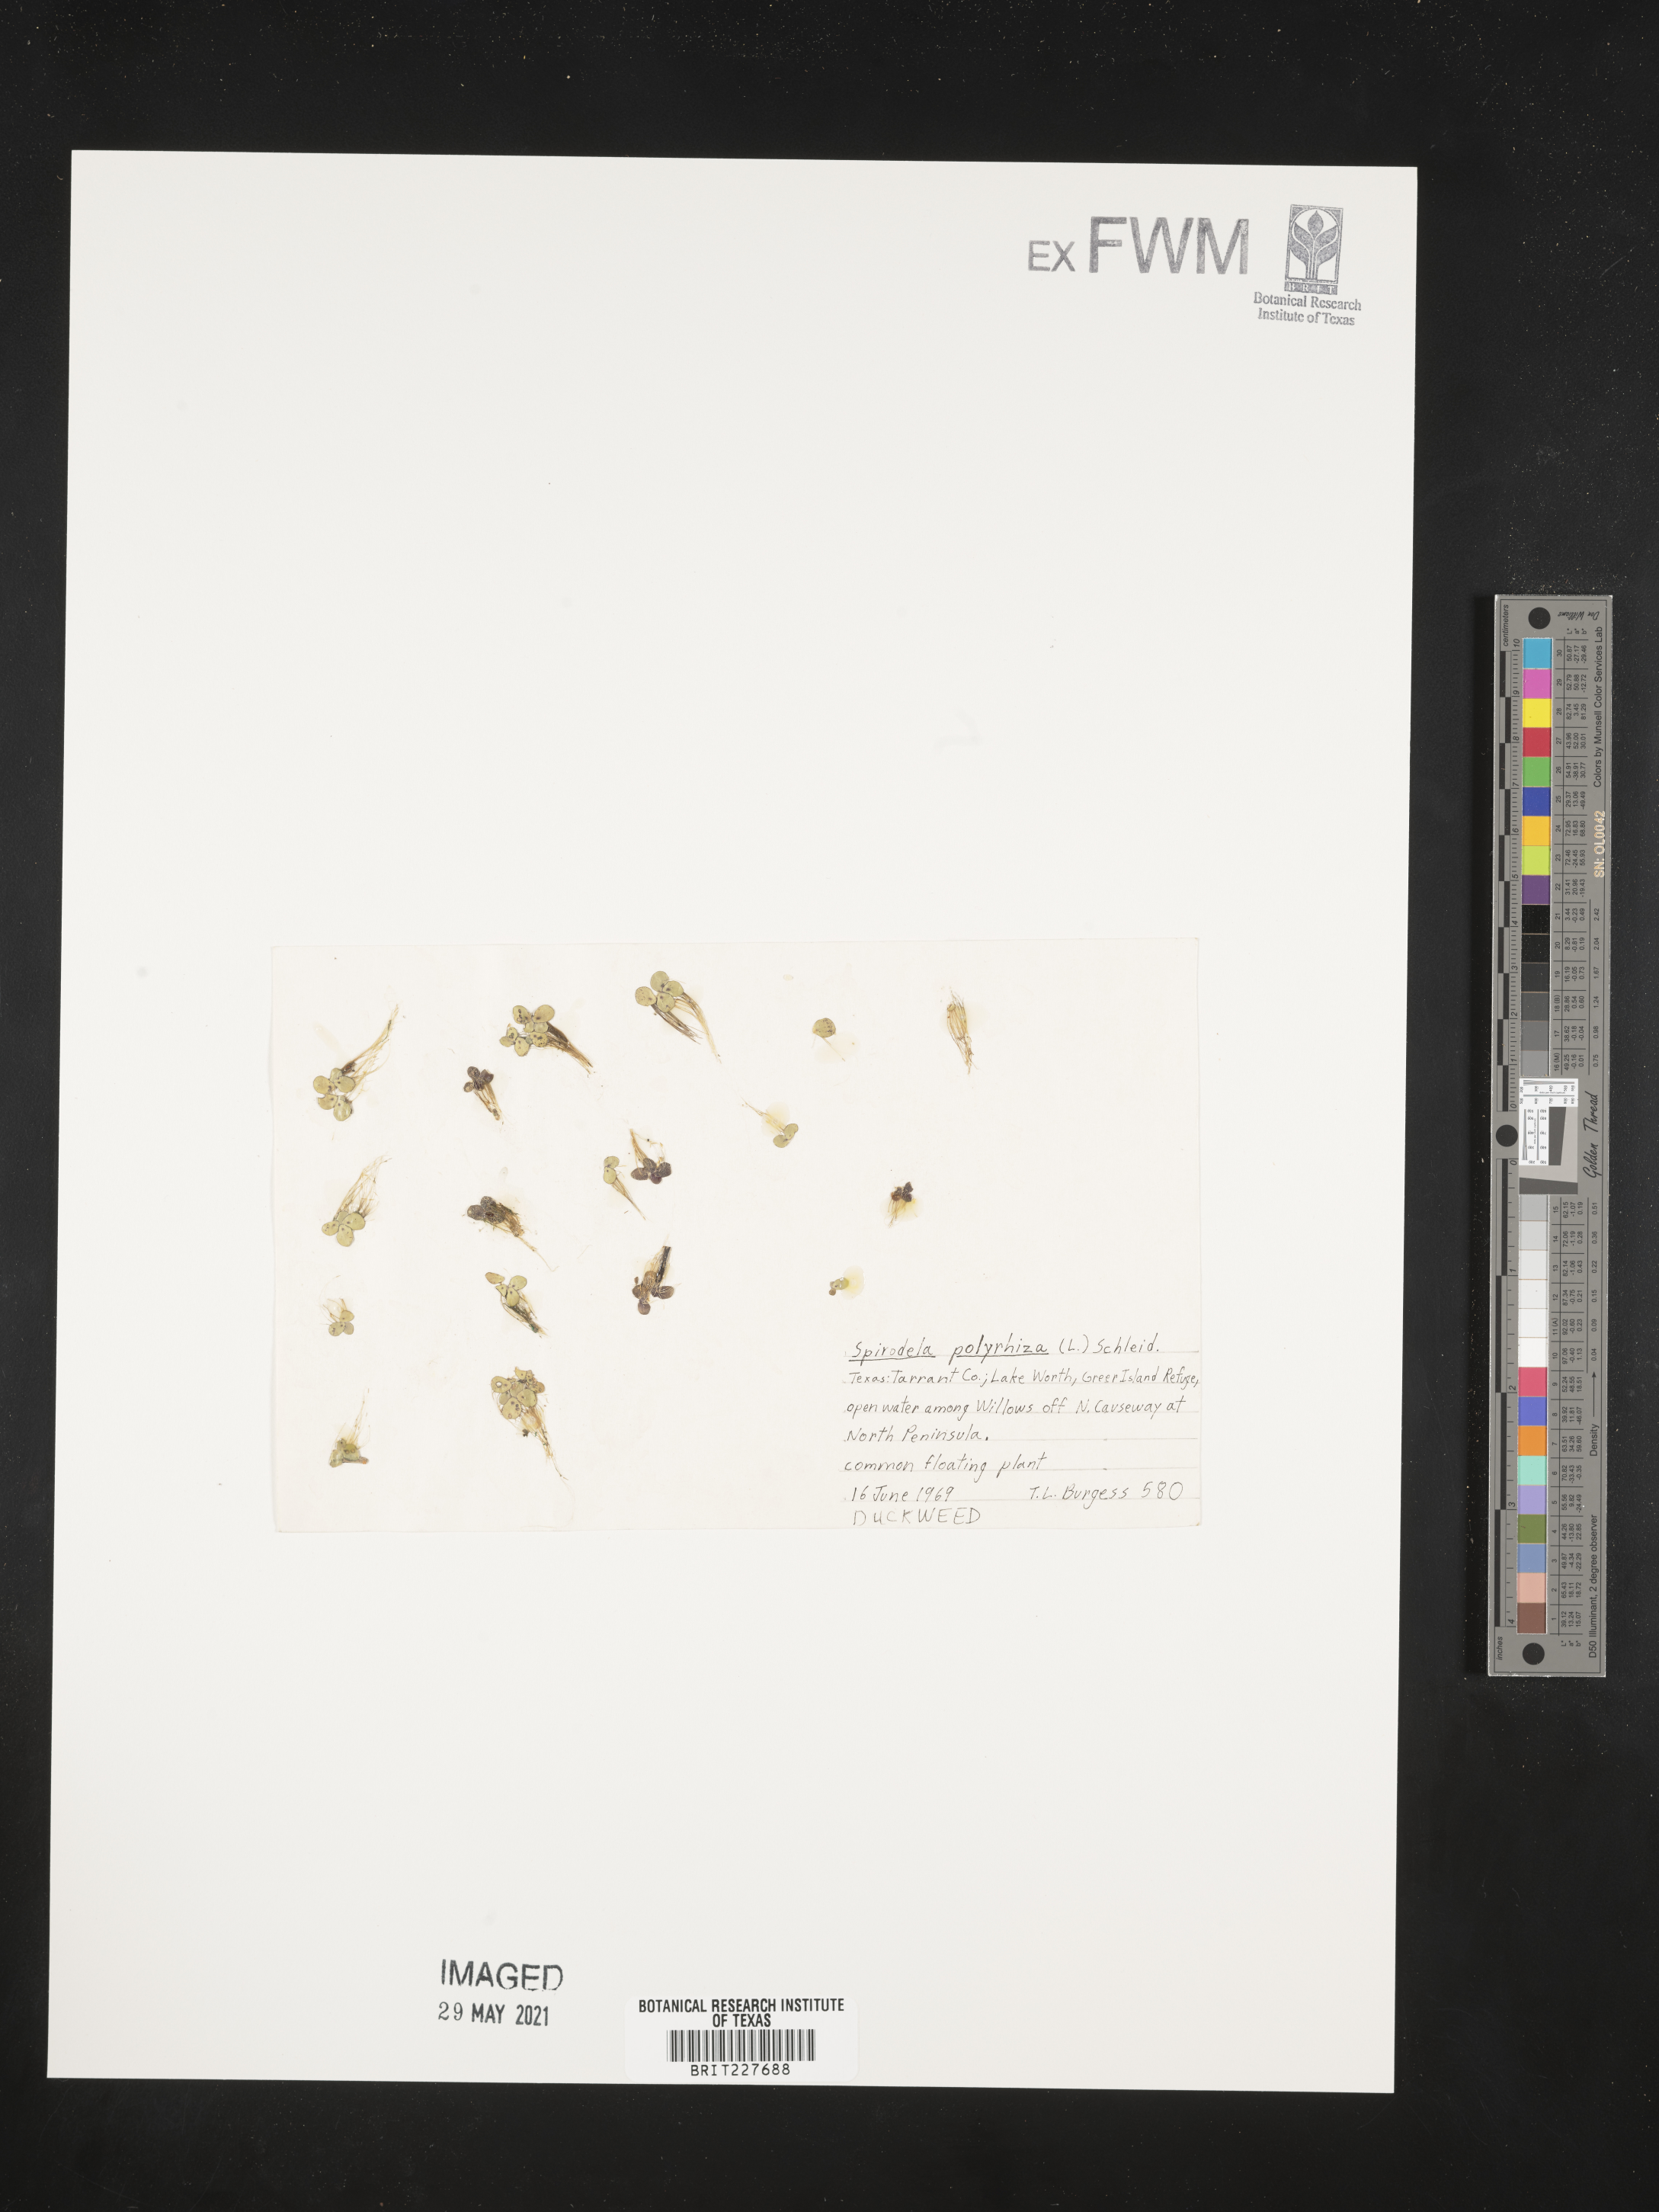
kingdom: Plantae
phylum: Tracheophyta
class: Liliopsida
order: Alismatales
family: Araceae
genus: Spirodela
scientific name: Spirodela polyrhiza
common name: Great duckweed
